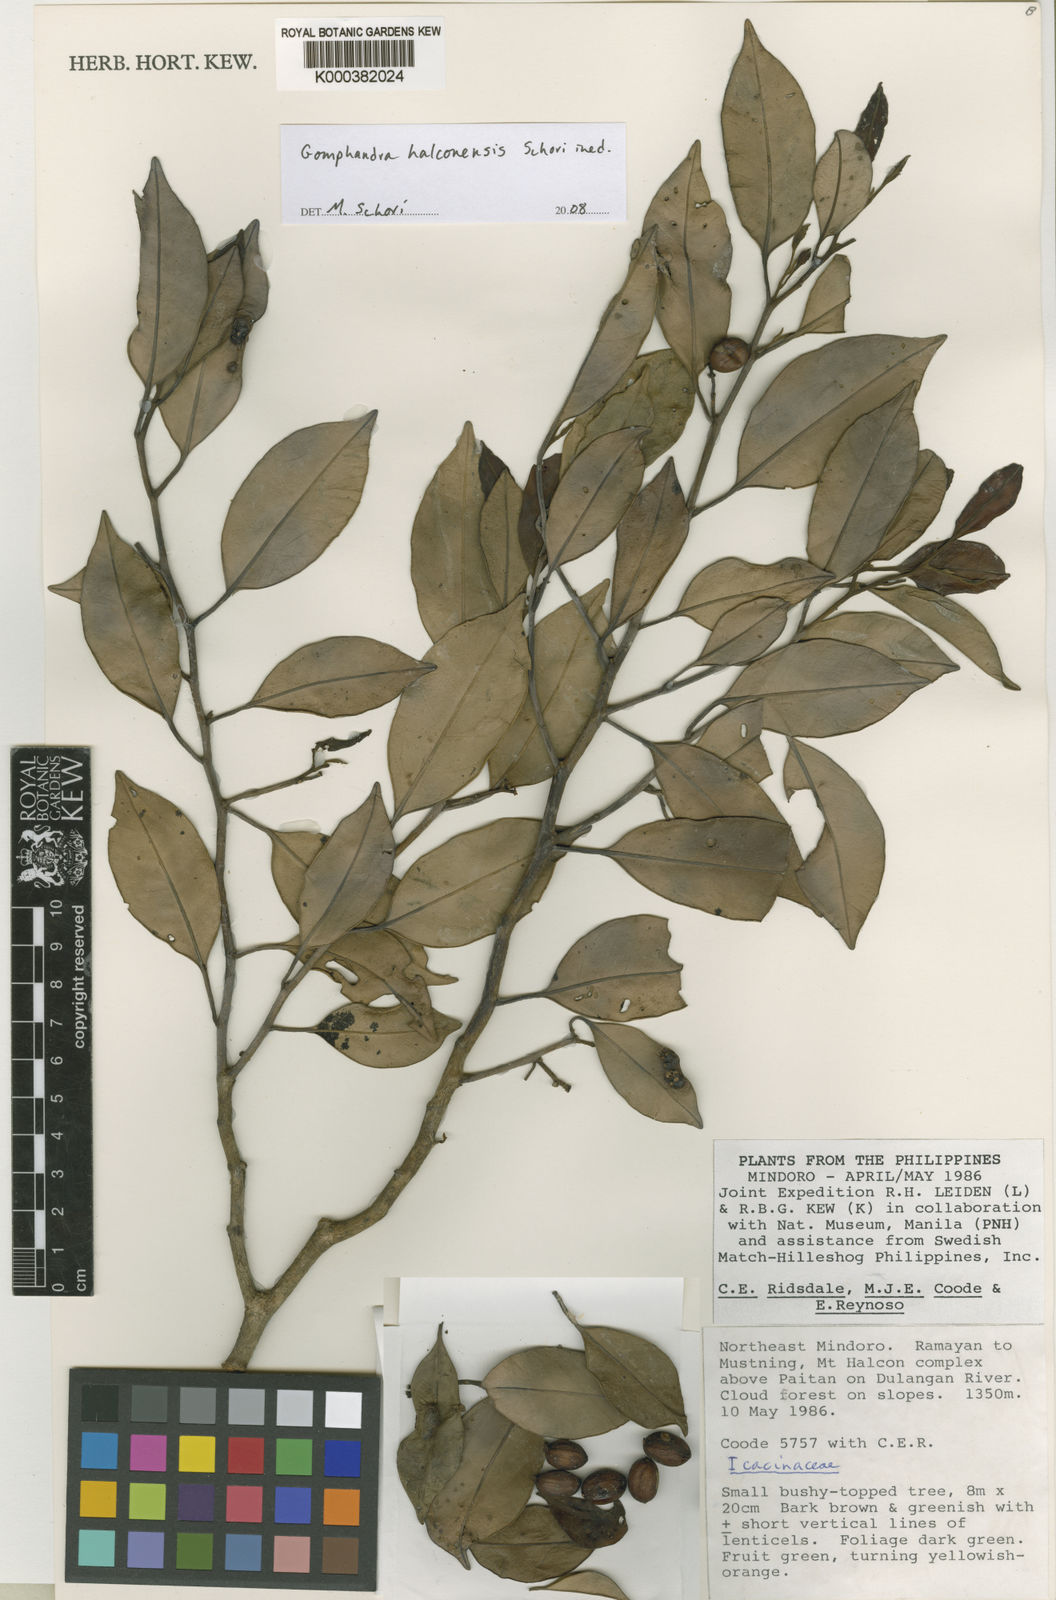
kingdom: Plantae
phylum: Tracheophyta
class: Magnoliopsida
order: Cardiopteridales
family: Stemonuraceae
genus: Gomphandra
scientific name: Gomphandra halconensis
